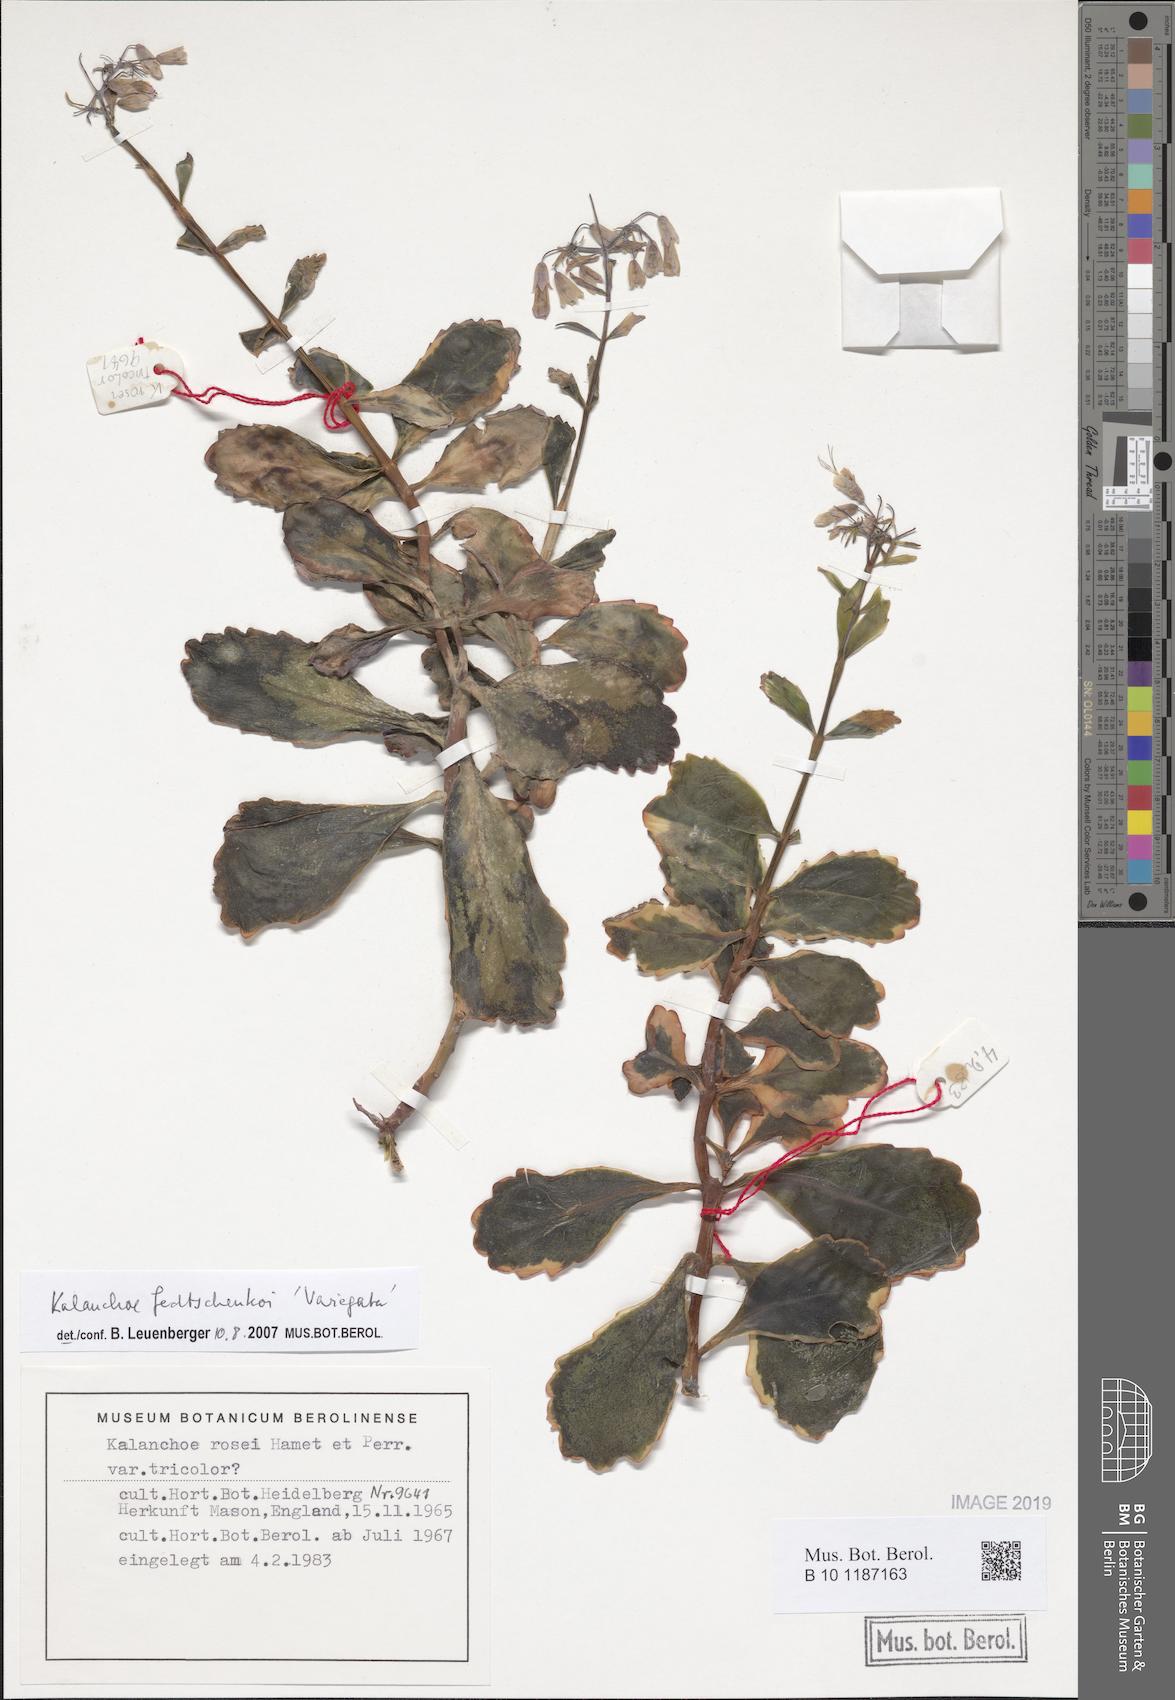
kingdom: Plantae
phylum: Tracheophyta
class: Magnoliopsida
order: Saxifragales
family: Crassulaceae
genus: Kalanchoe
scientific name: Kalanchoe fedtschenkoi
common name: Lavender scallops
